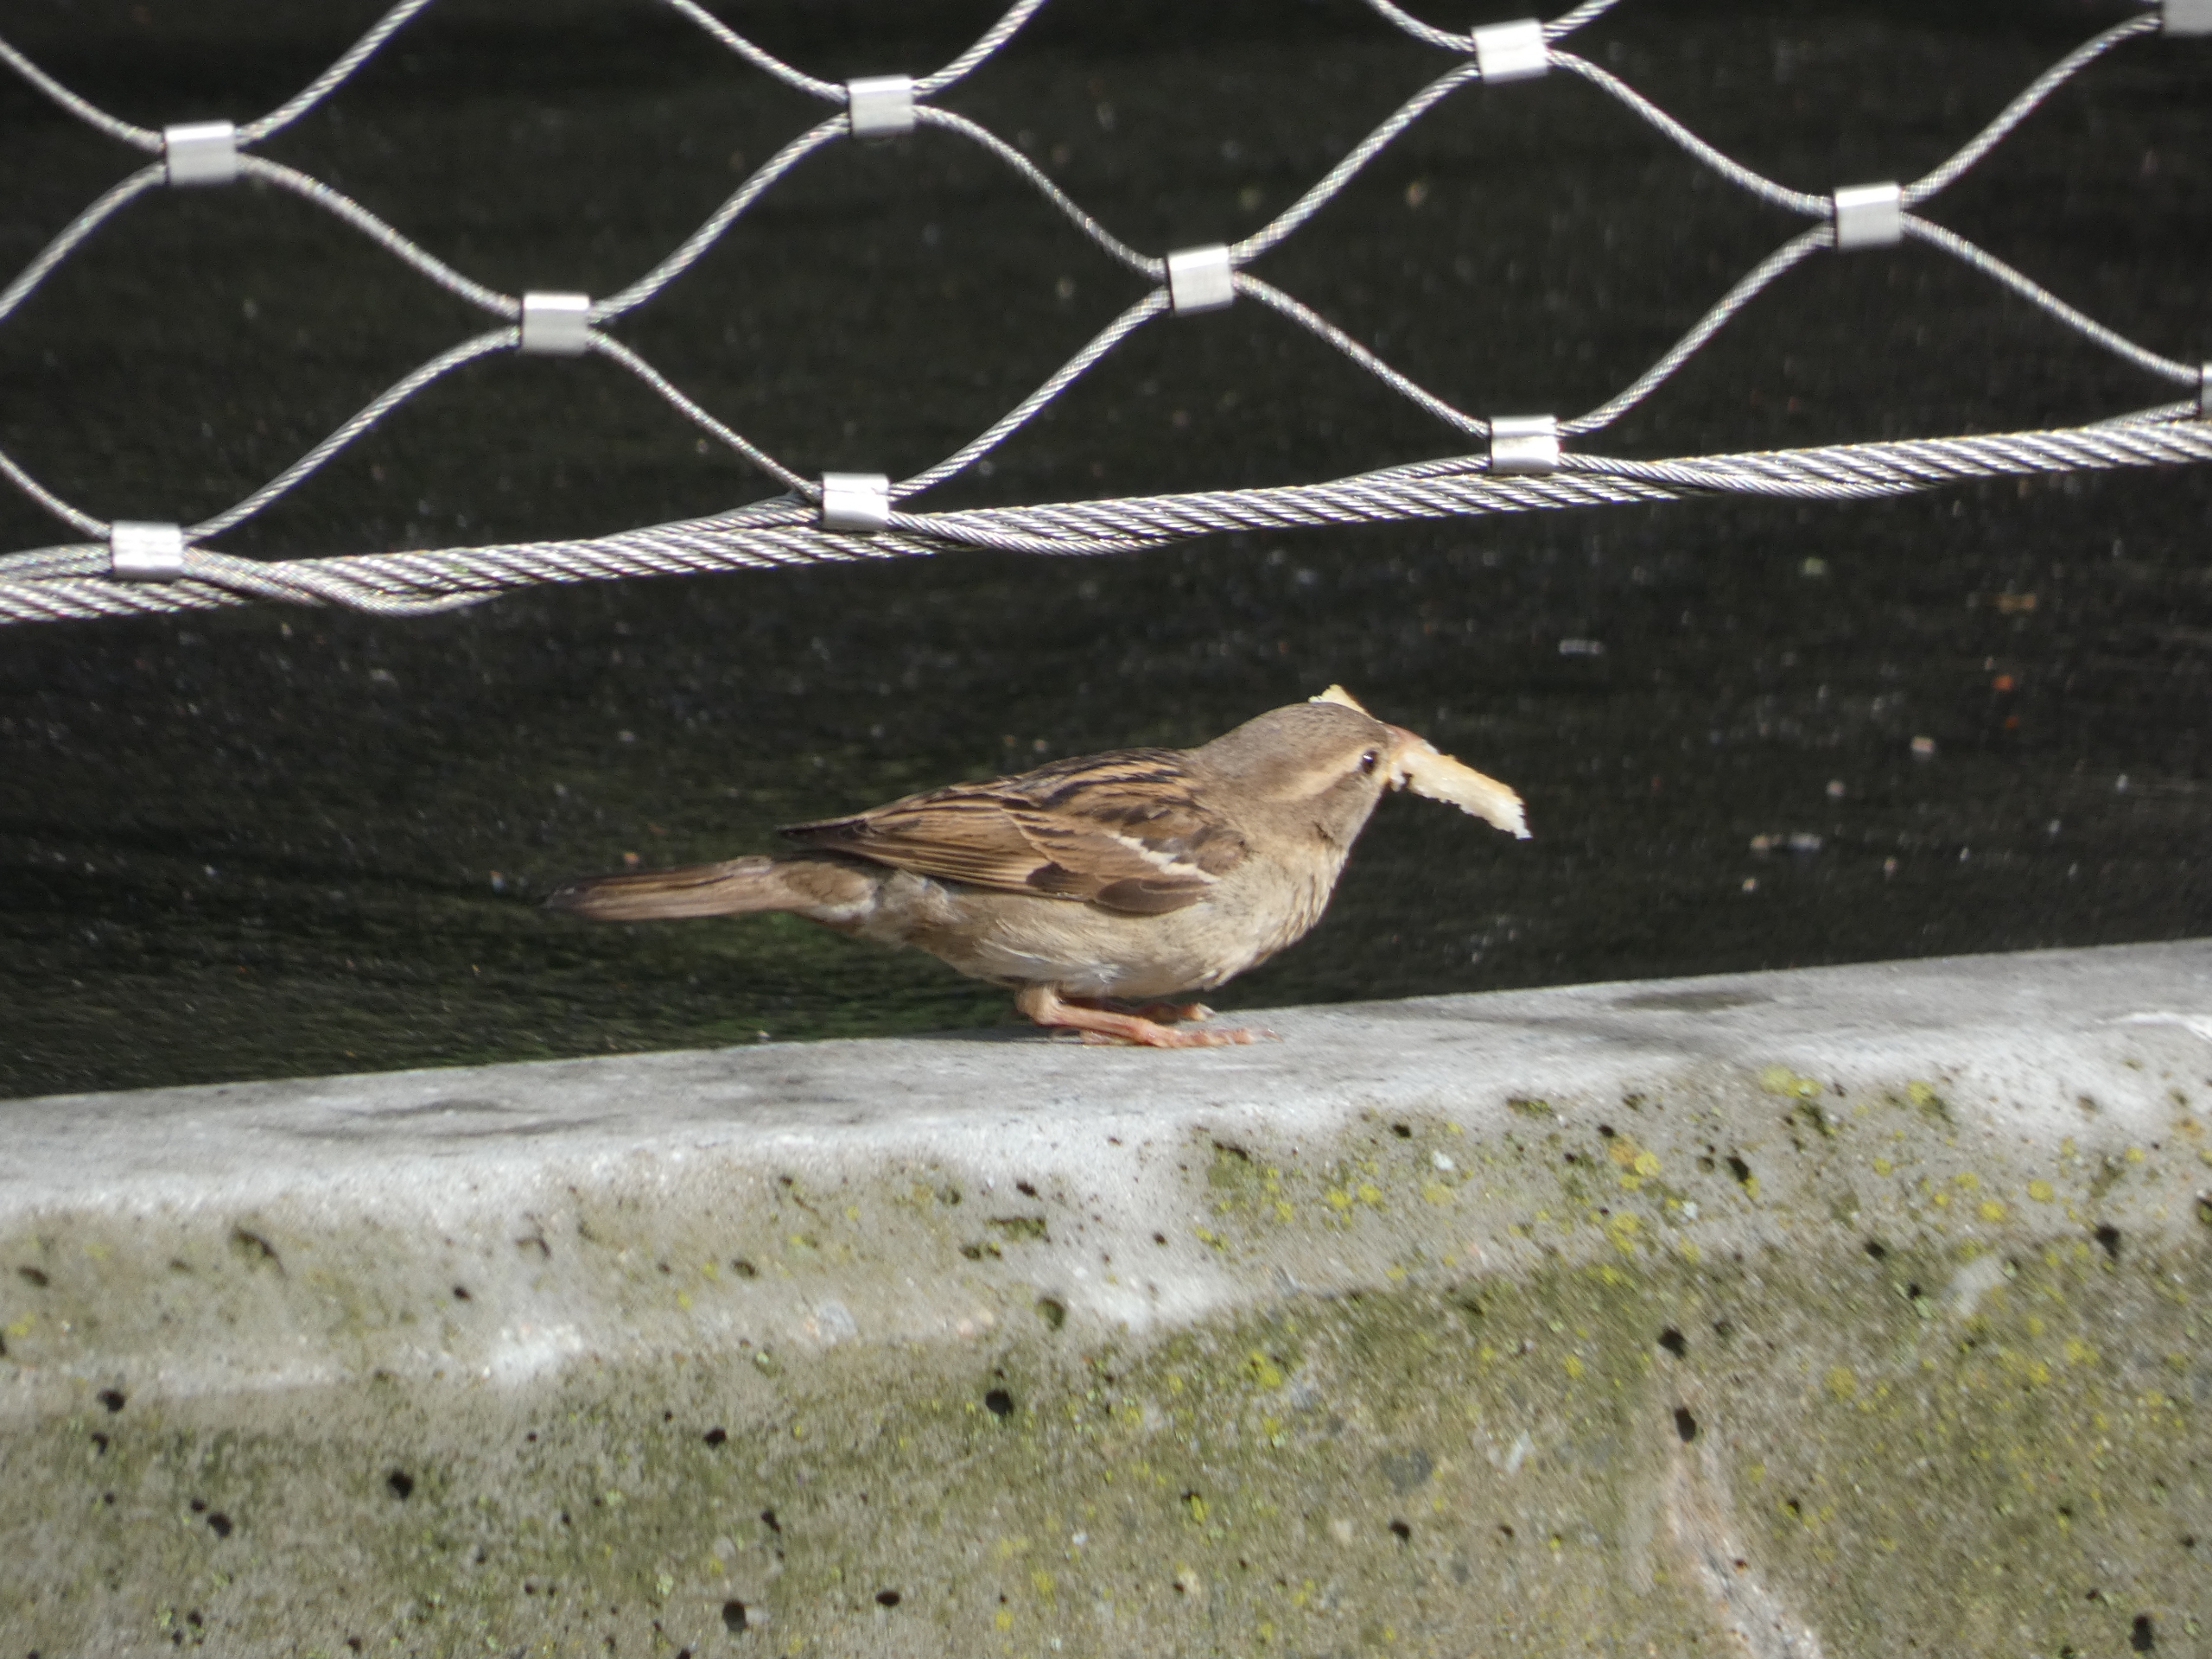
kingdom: Animalia
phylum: Chordata
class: Aves
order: Passeriformes
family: Passeridae
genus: Passer
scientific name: Passer domesticus
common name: Gråspurv
